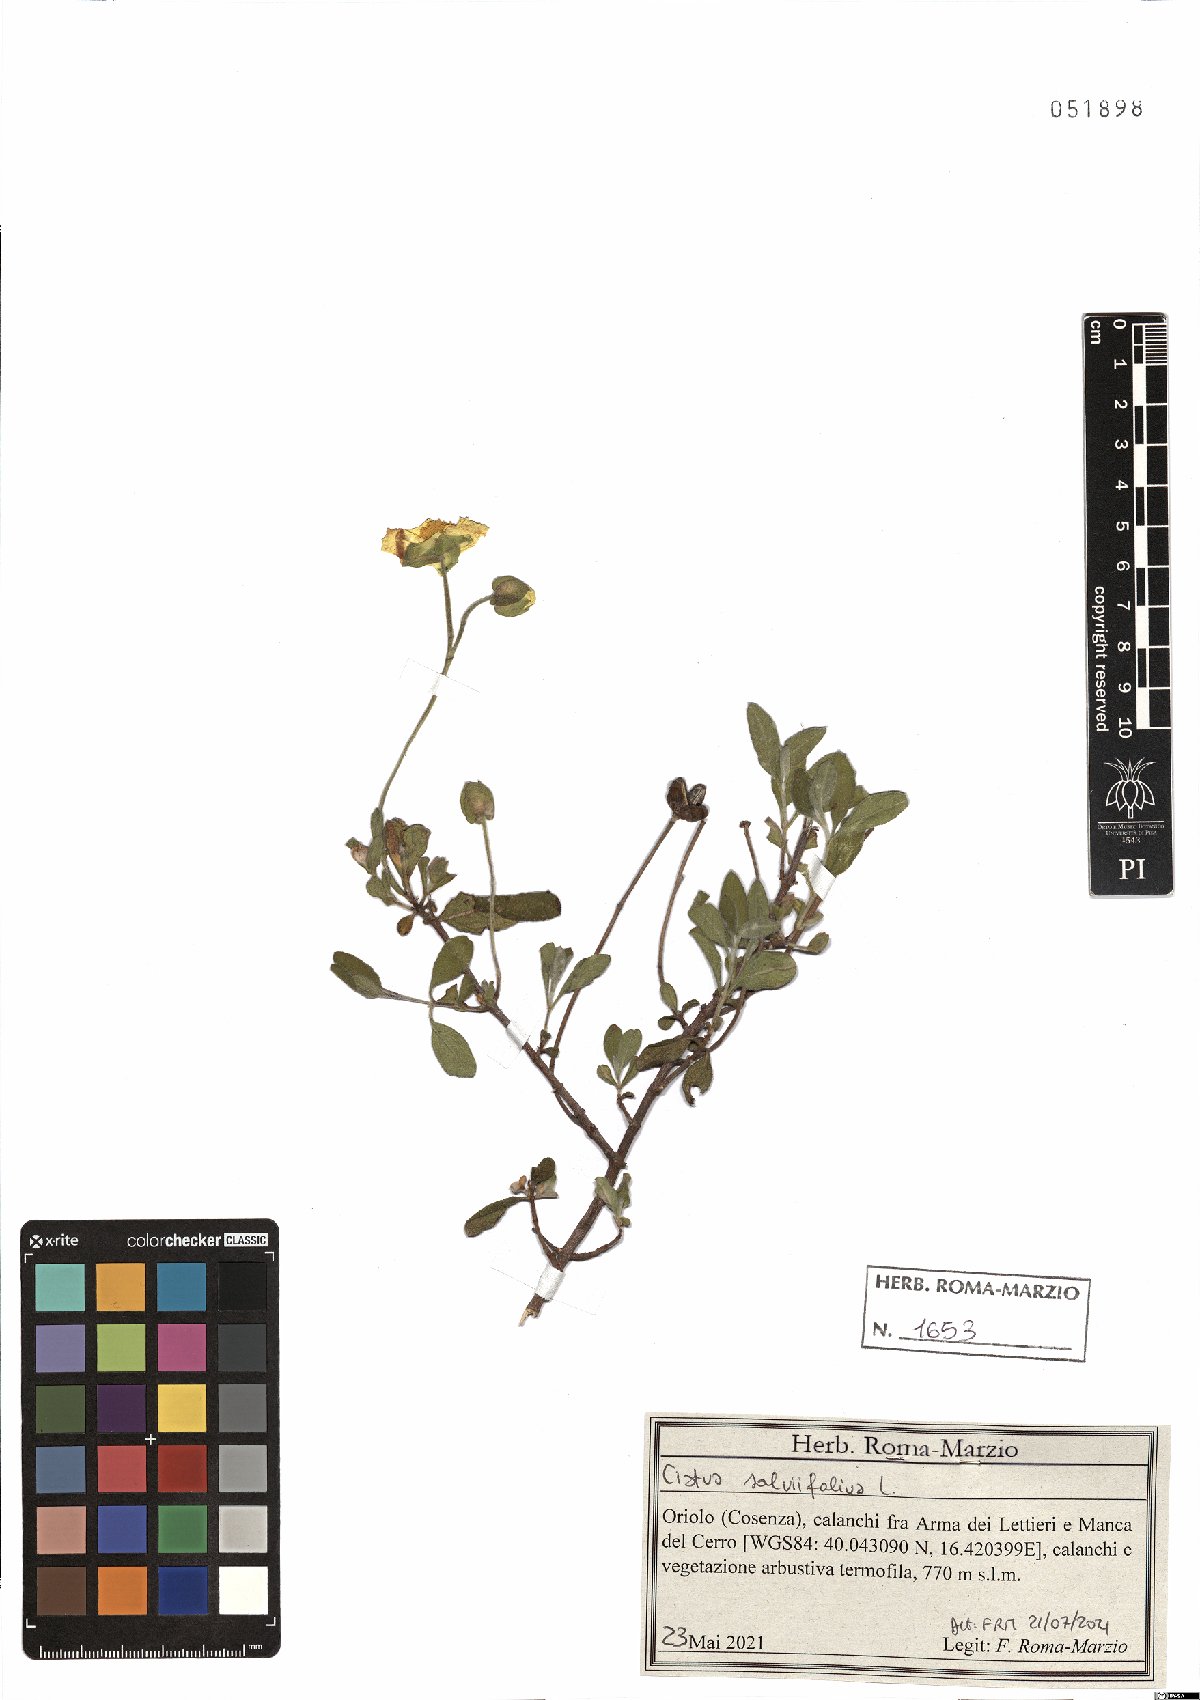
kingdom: Plantae
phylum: Tracheophyta
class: Magnoliopsida
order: Malvales
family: Cistaceae
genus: Cistus
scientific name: Cistus salviifolius
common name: Salvia cistus
